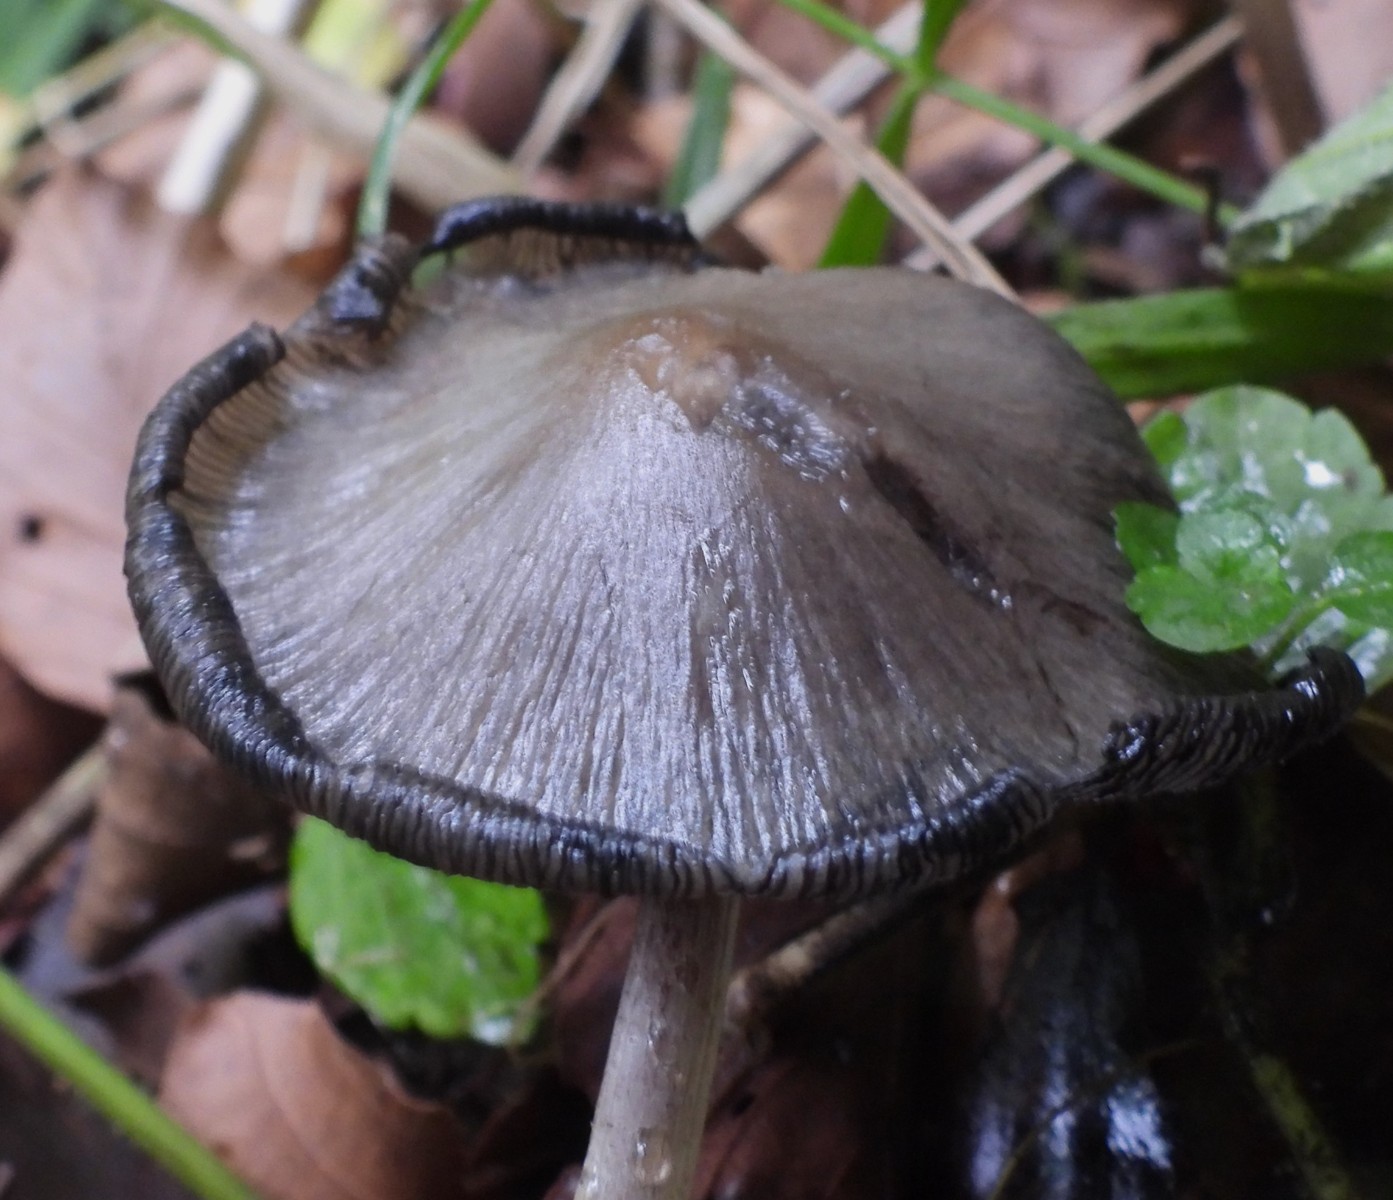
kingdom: Fungi
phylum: Basidiomycota
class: Agaricomycetes
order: Agaricales
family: Psathyrellaceae
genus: Coprinopsis
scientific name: Coprinopsis atramentaria
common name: almindelig blækhat
